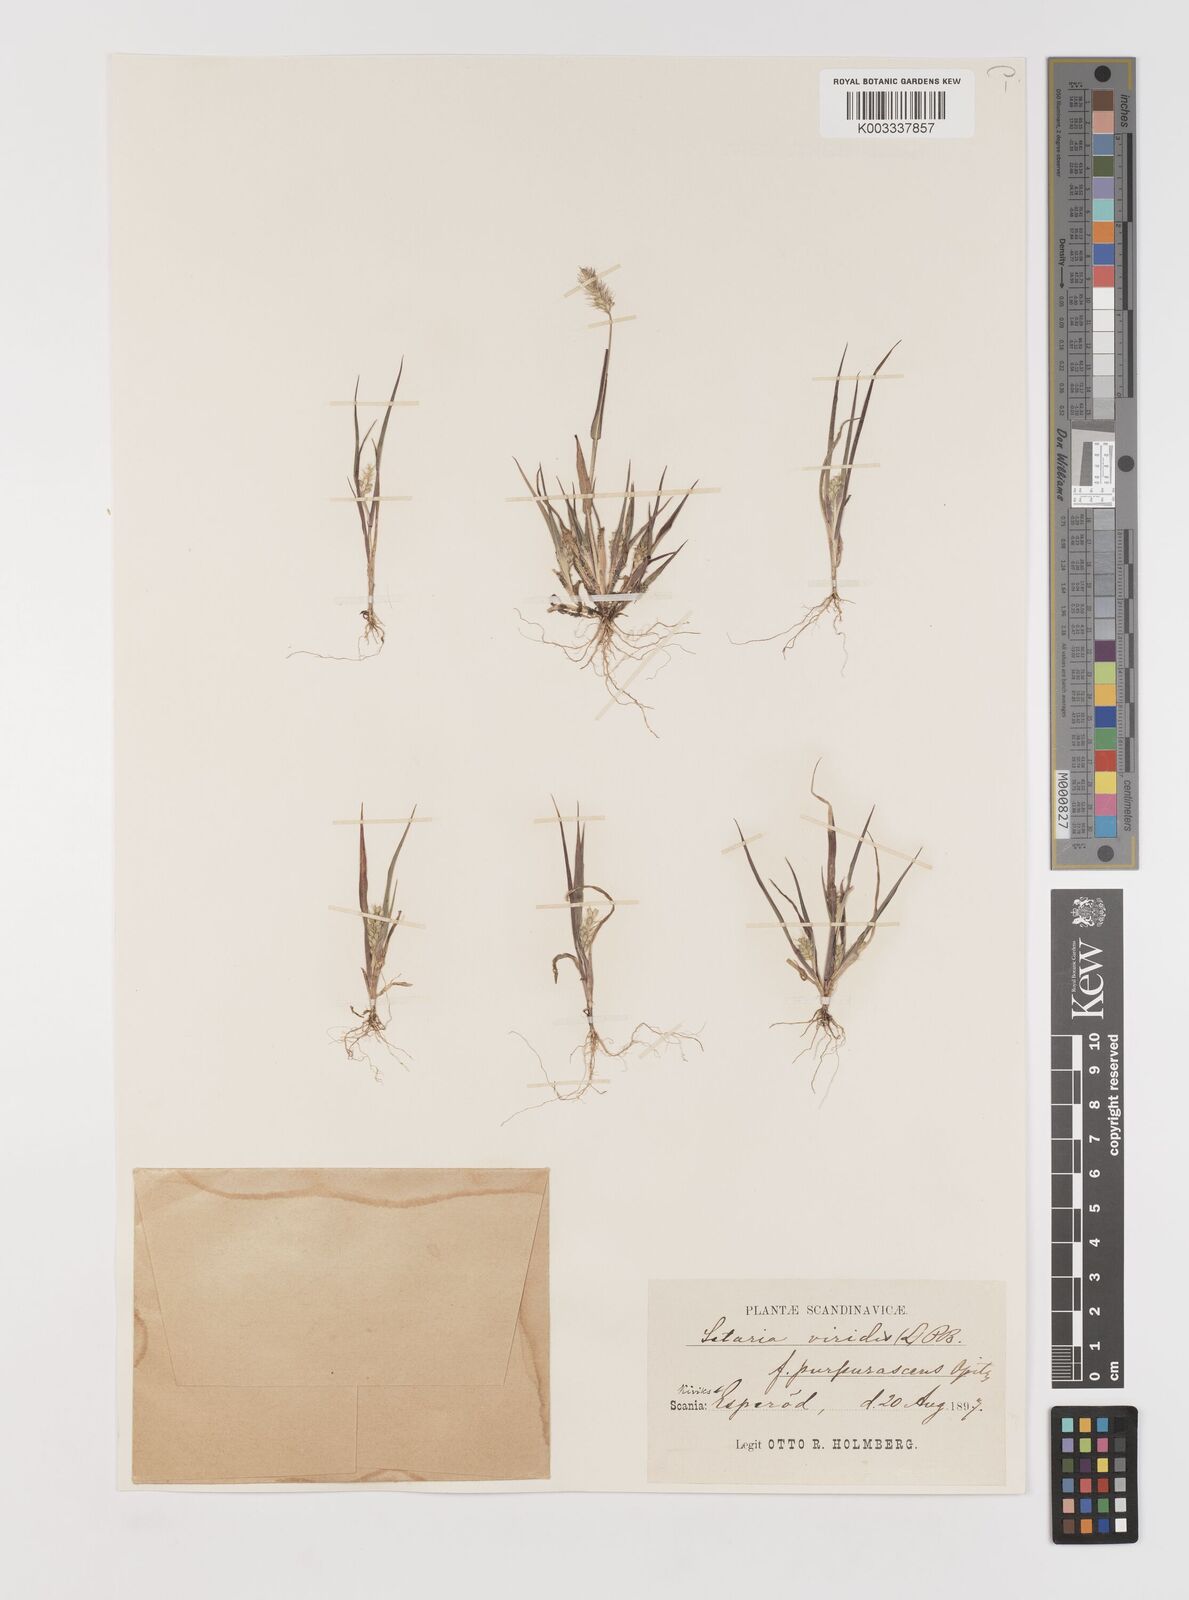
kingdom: Plantae
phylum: Tracheophyta
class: Liliopsida
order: Poales
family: Poaceae
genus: Setaria
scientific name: Setaria viridis
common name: Green bristlegrass
